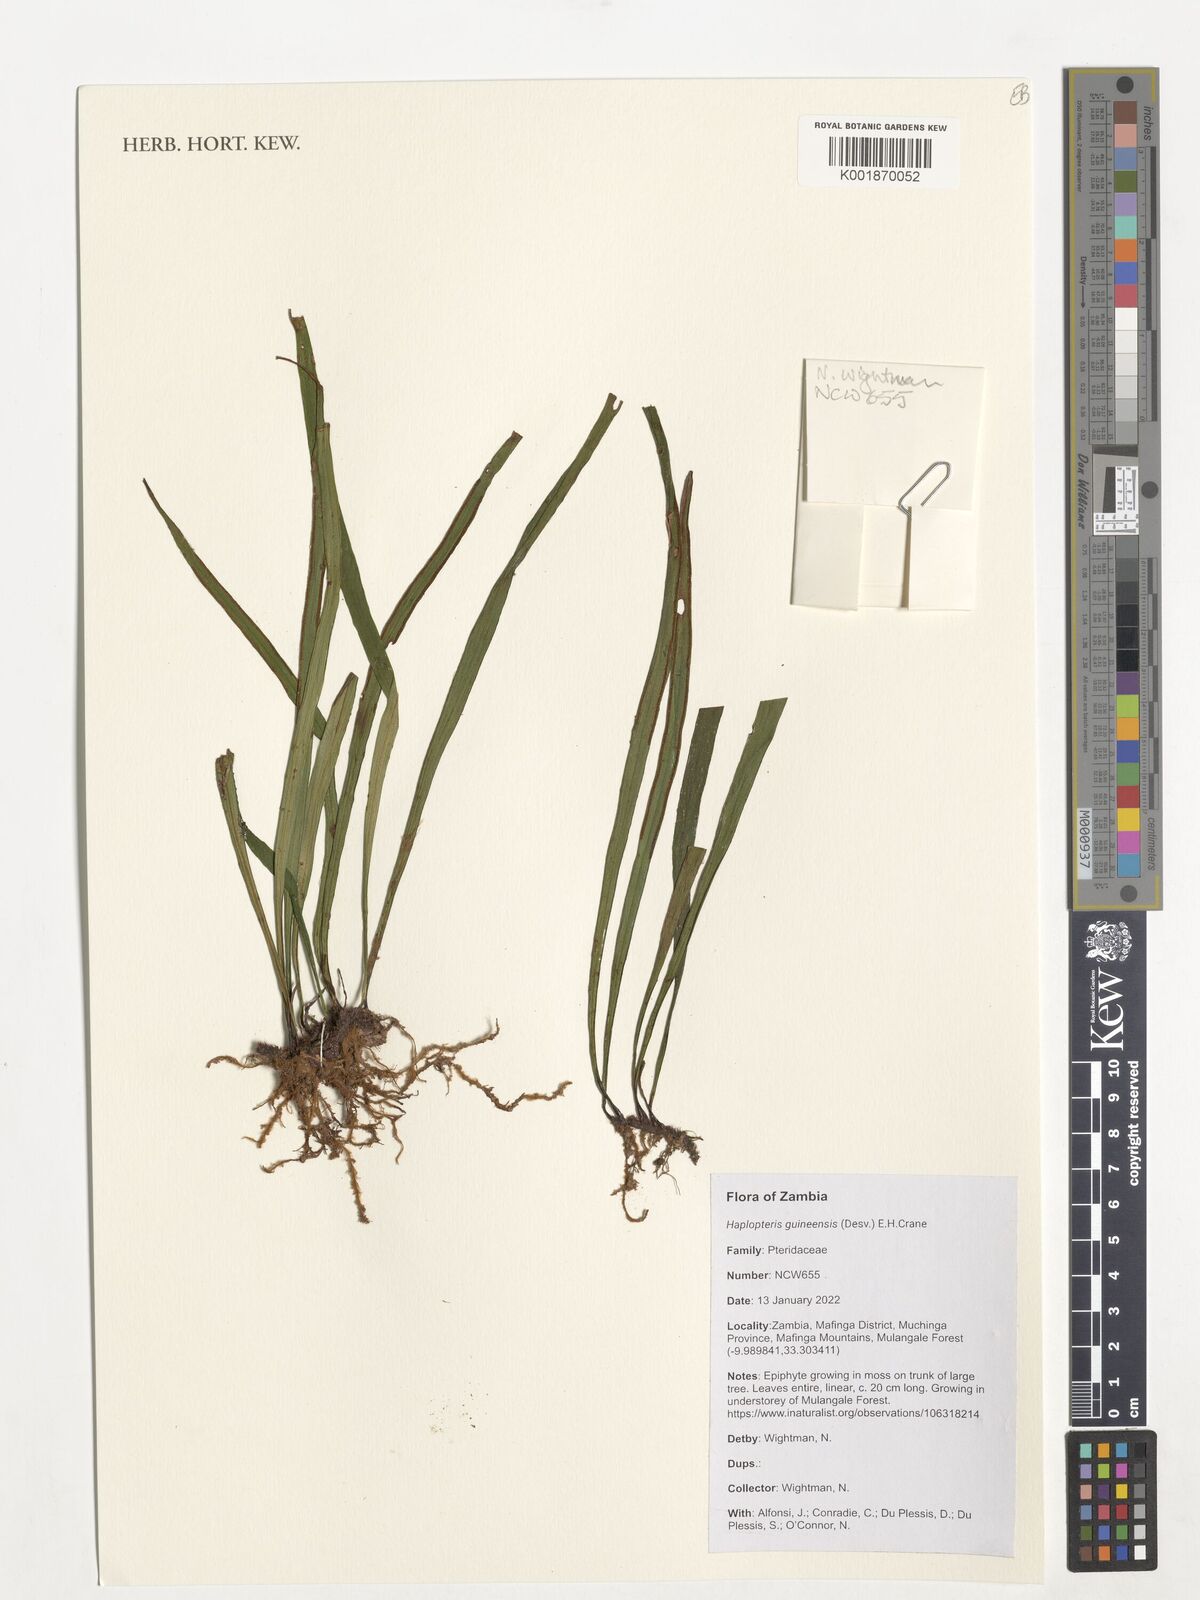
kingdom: Plantae
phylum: Tracheophyta
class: Polypodiopsida
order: Polypodiales
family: Pteridaceae
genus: Haplopteris
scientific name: Haplopteris guineensis
